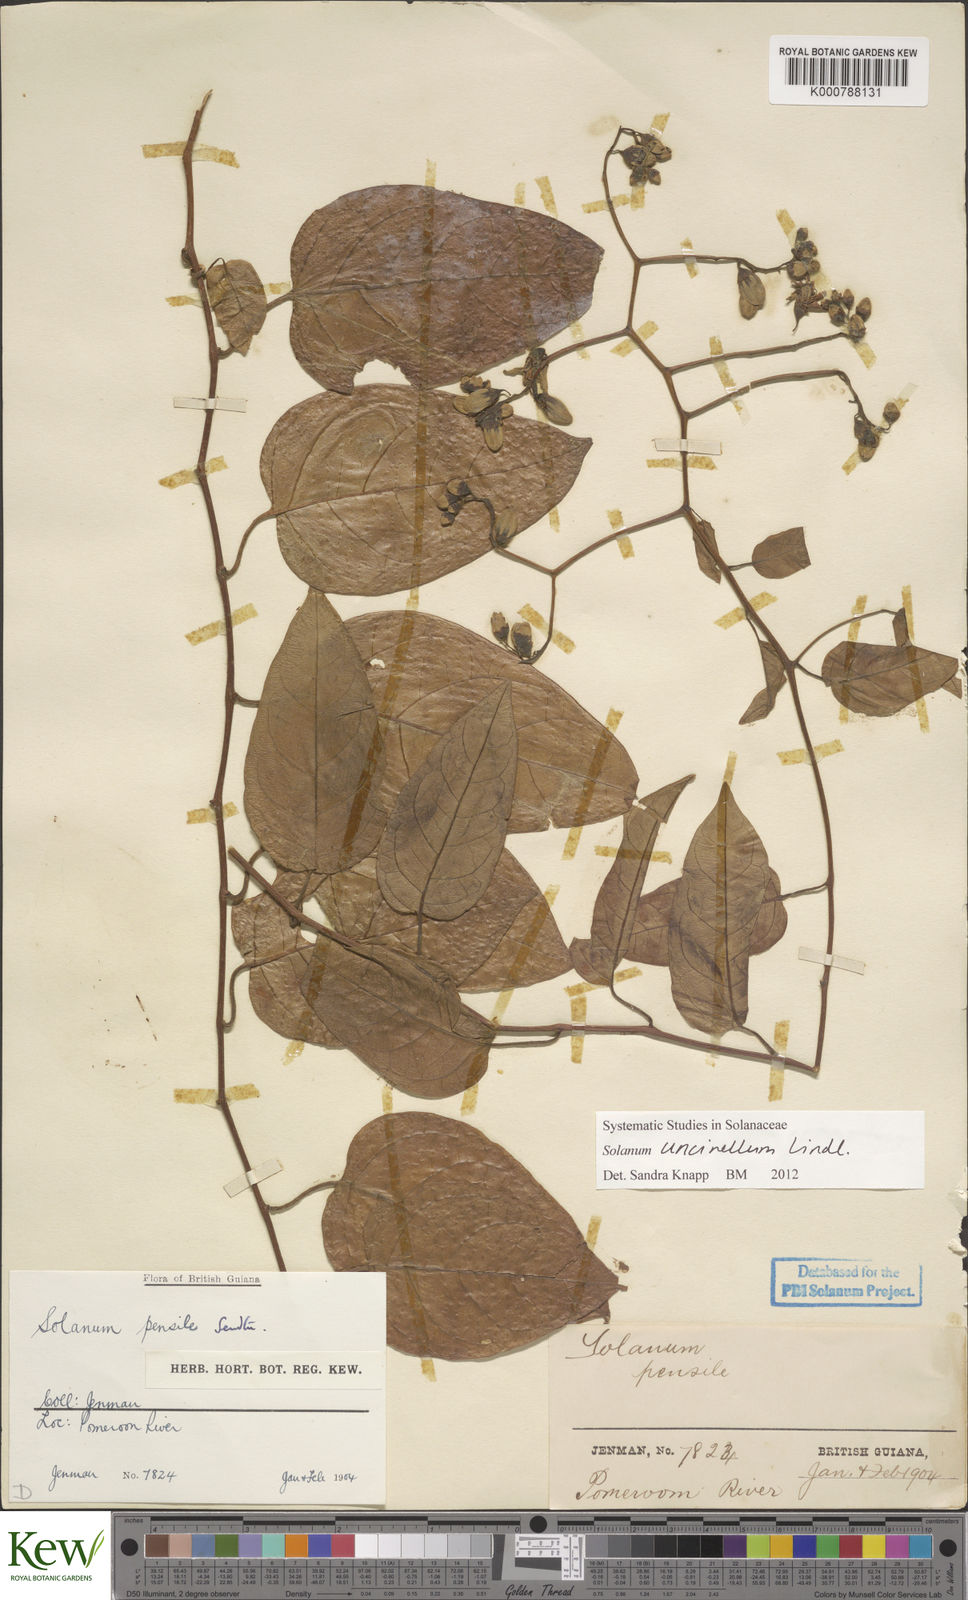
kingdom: Plantae
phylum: Tracheophyta
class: Magnoliopsida
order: Solanales
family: Solanaceae
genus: Solanum
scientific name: Solanum uncinellum
